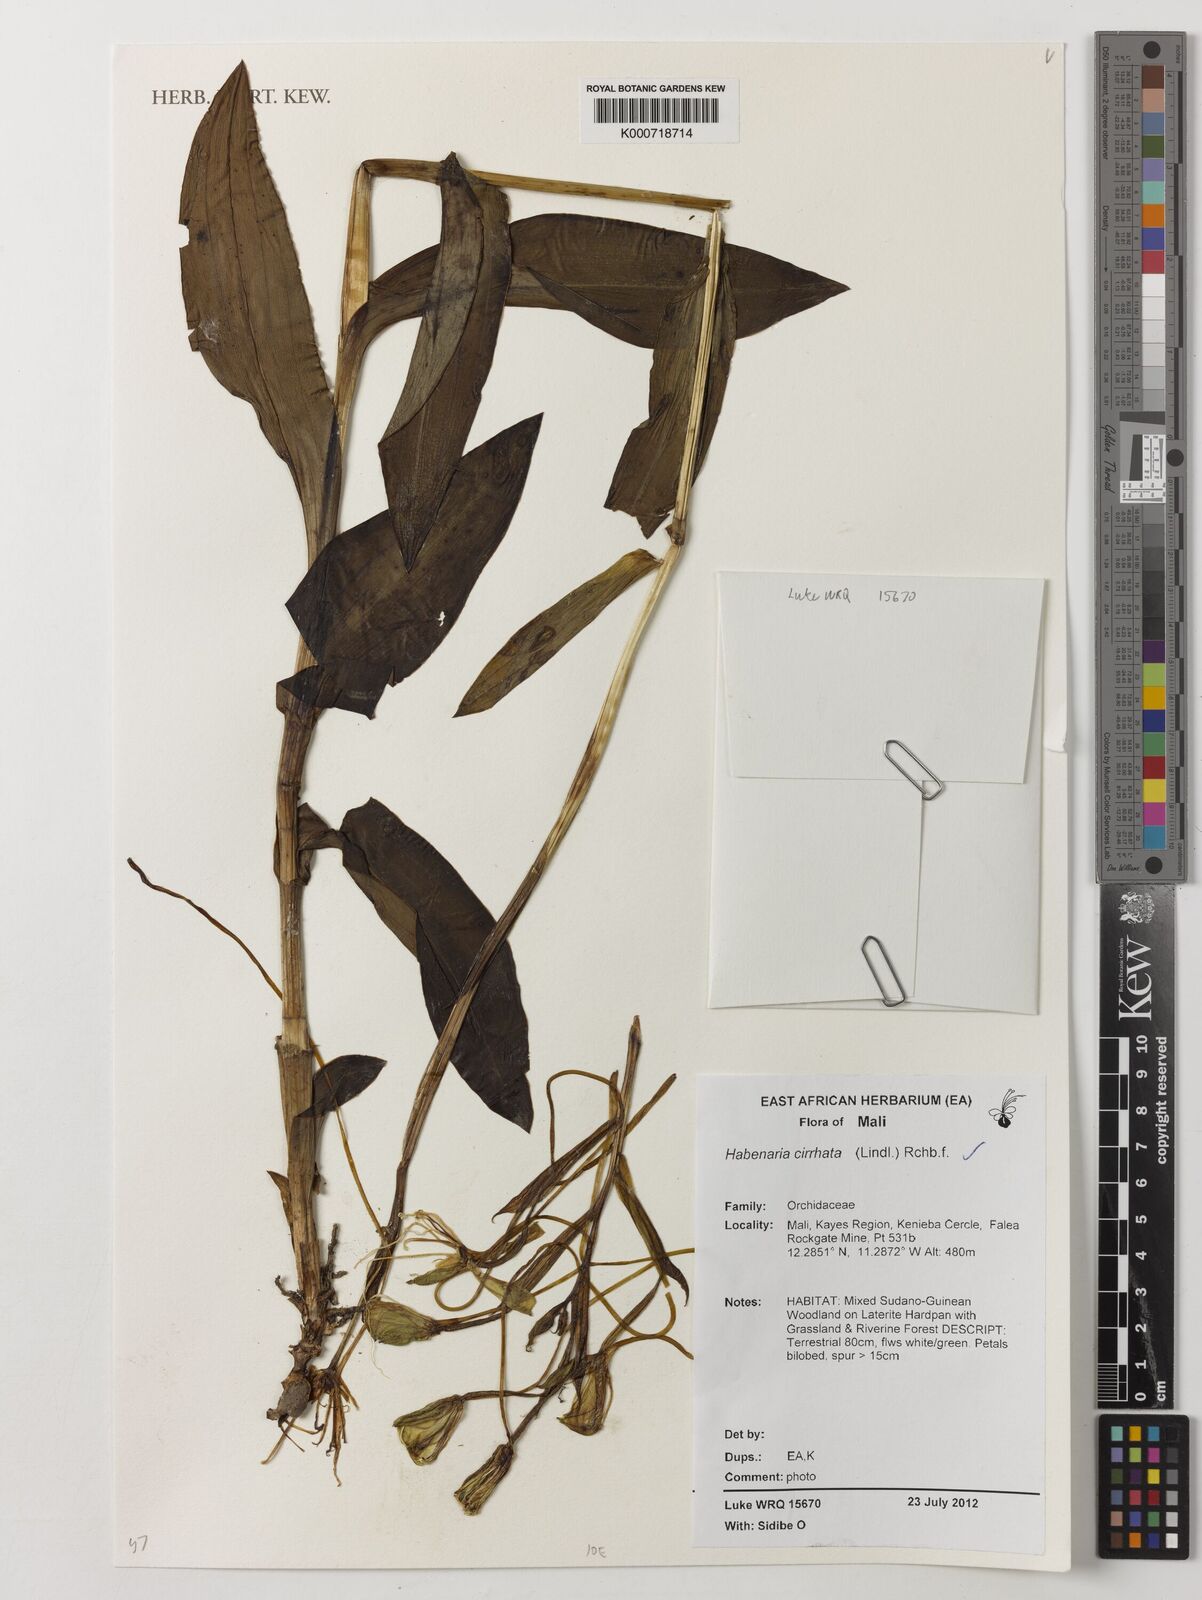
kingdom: Plantae
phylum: Tracheophyta
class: Liliopsida
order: Asparagales
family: Orchidaceae
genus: Habenaria
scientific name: Habenaria cirrhata
